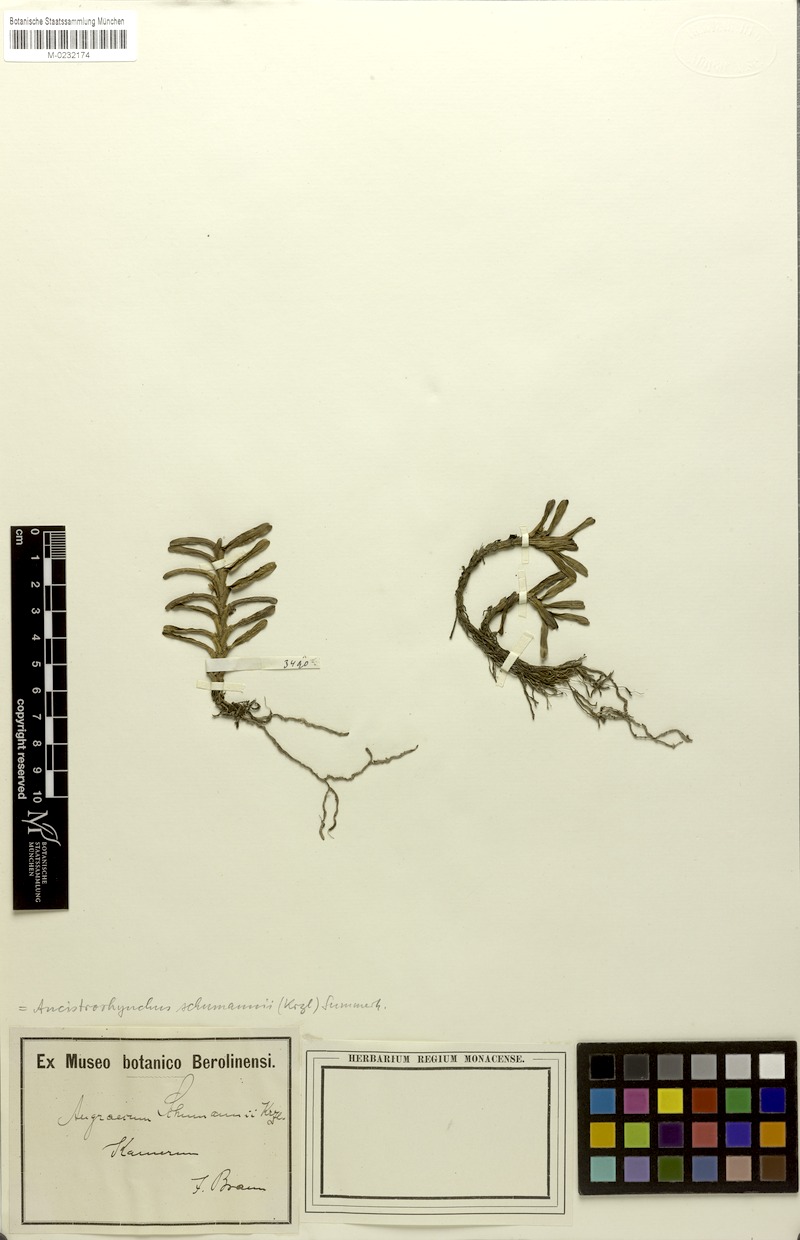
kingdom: Plantae
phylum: Tracheophyta
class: Liliopsida
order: Asparagales
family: Orchidaceae
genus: Ancistrorhynchus
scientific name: Ancistrorhynchus schumannii
